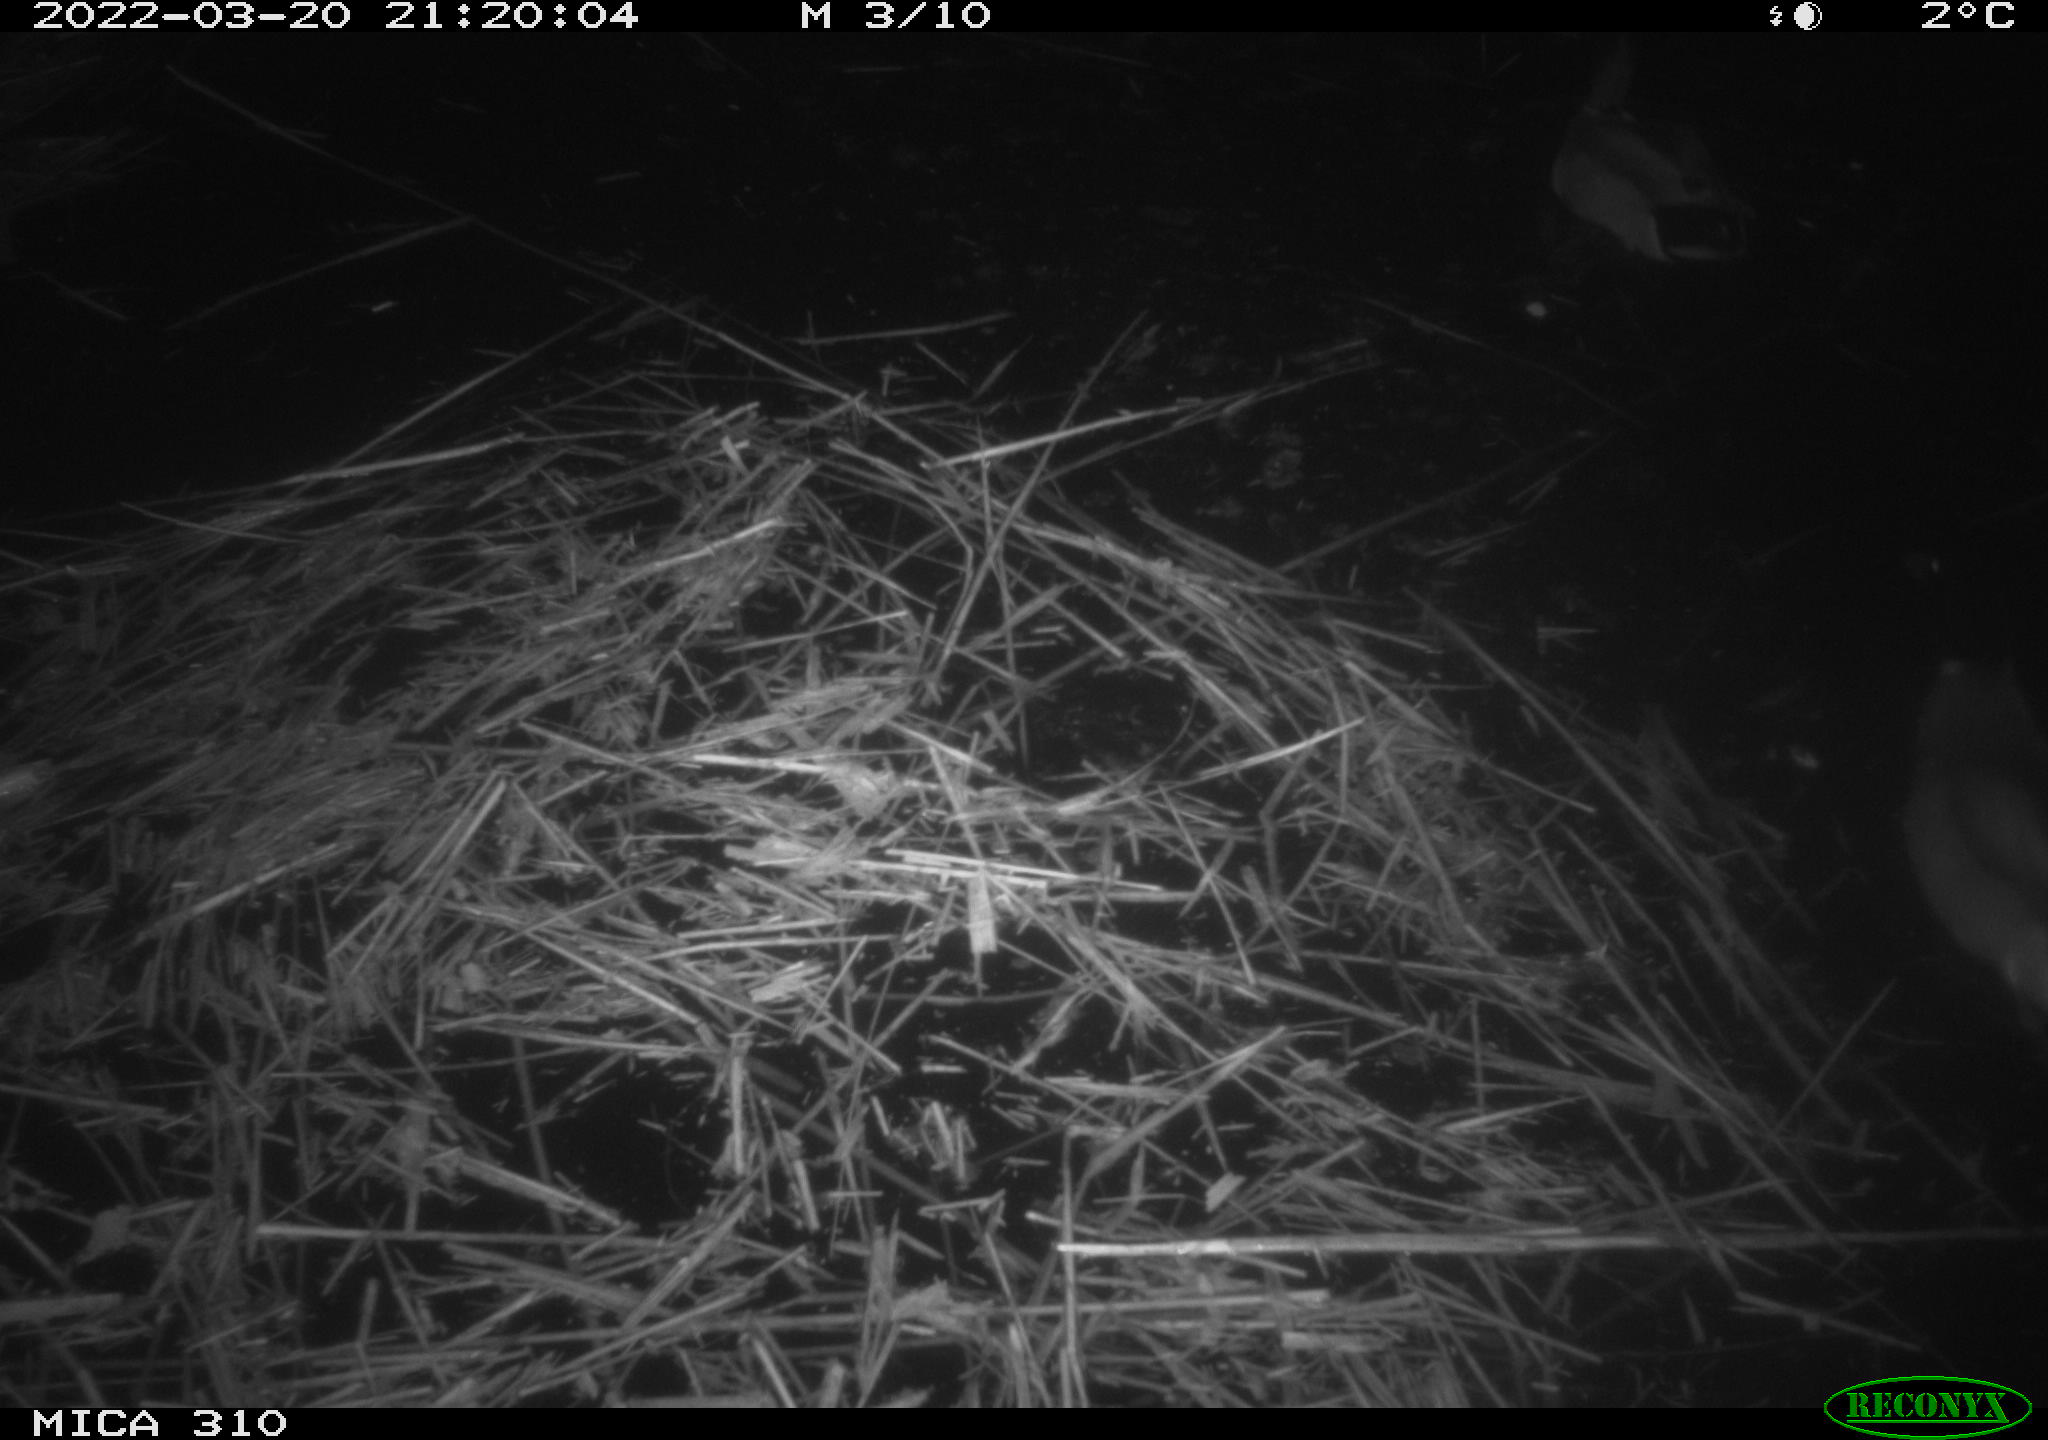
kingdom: Animalia
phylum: Chordata
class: Aves
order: Anseriformes
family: Anatidae
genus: Anas
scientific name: Anas platyrhynchos
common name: Mallard
